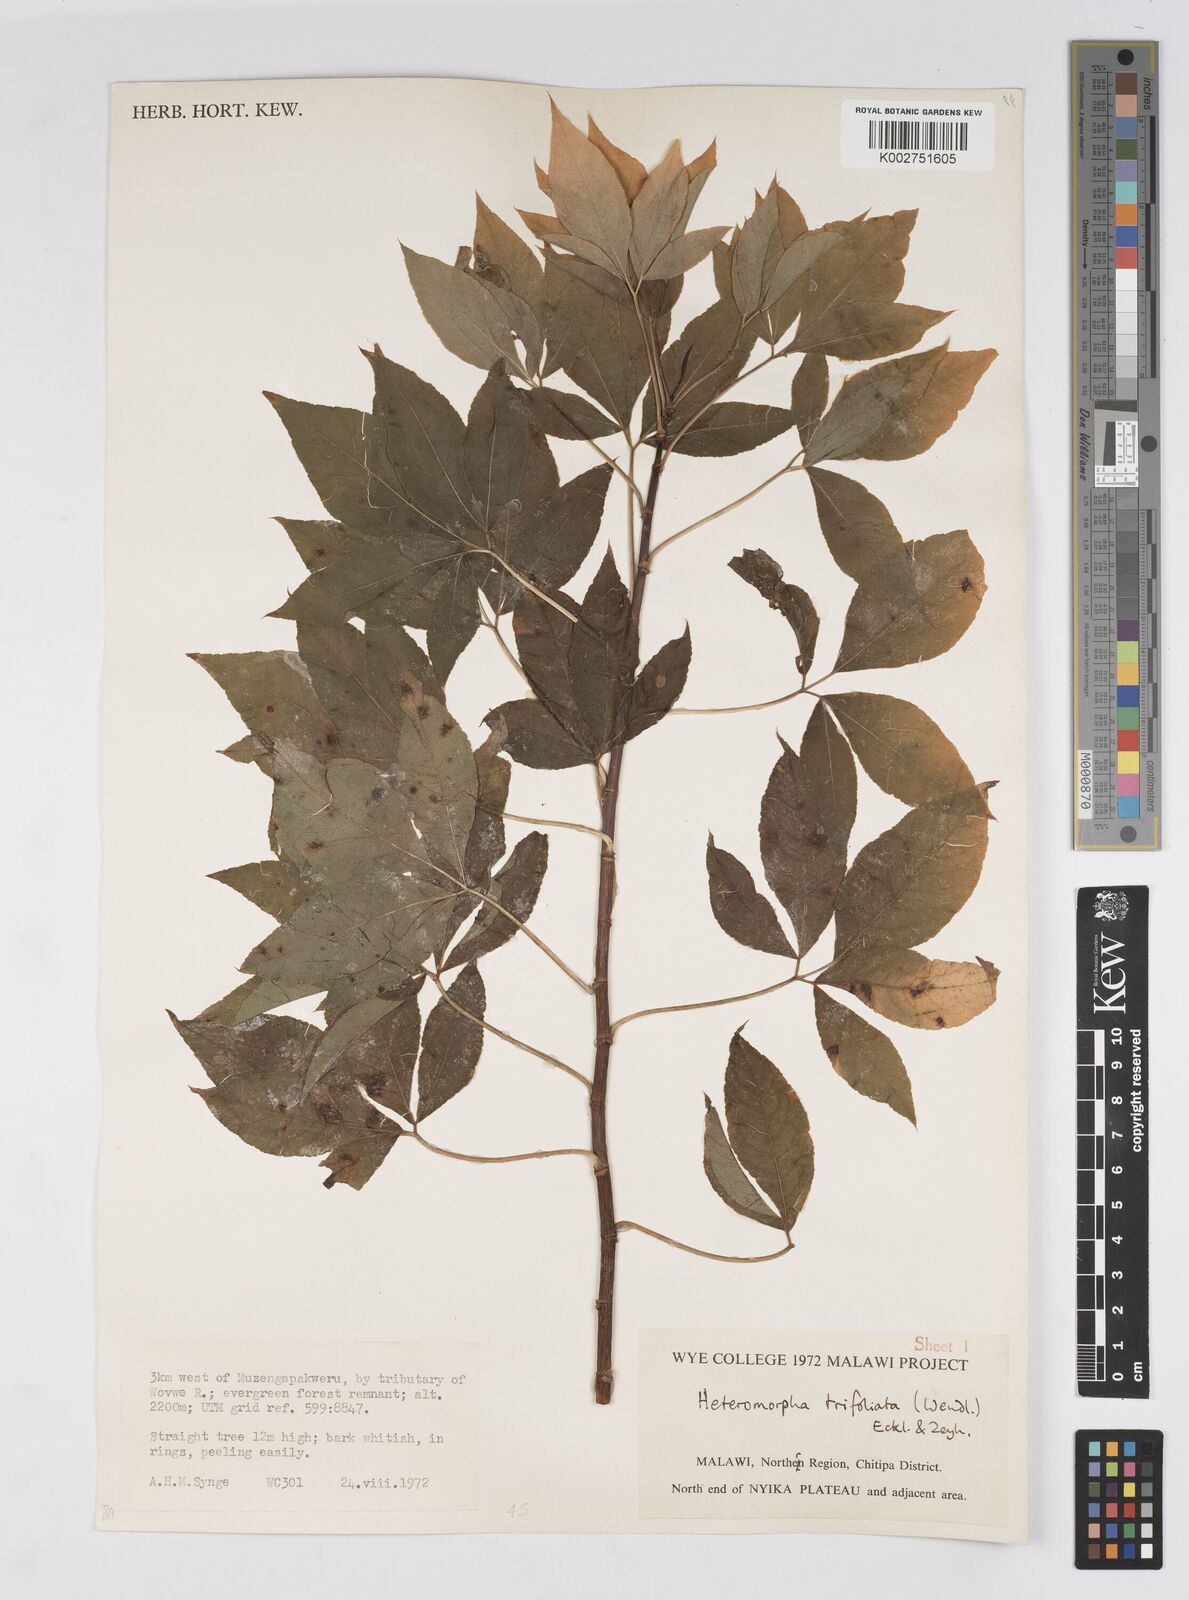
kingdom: Plantae
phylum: Tracheophyta
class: Magnoliopsida
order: Apiales
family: Apiaceae
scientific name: Apiaceae
